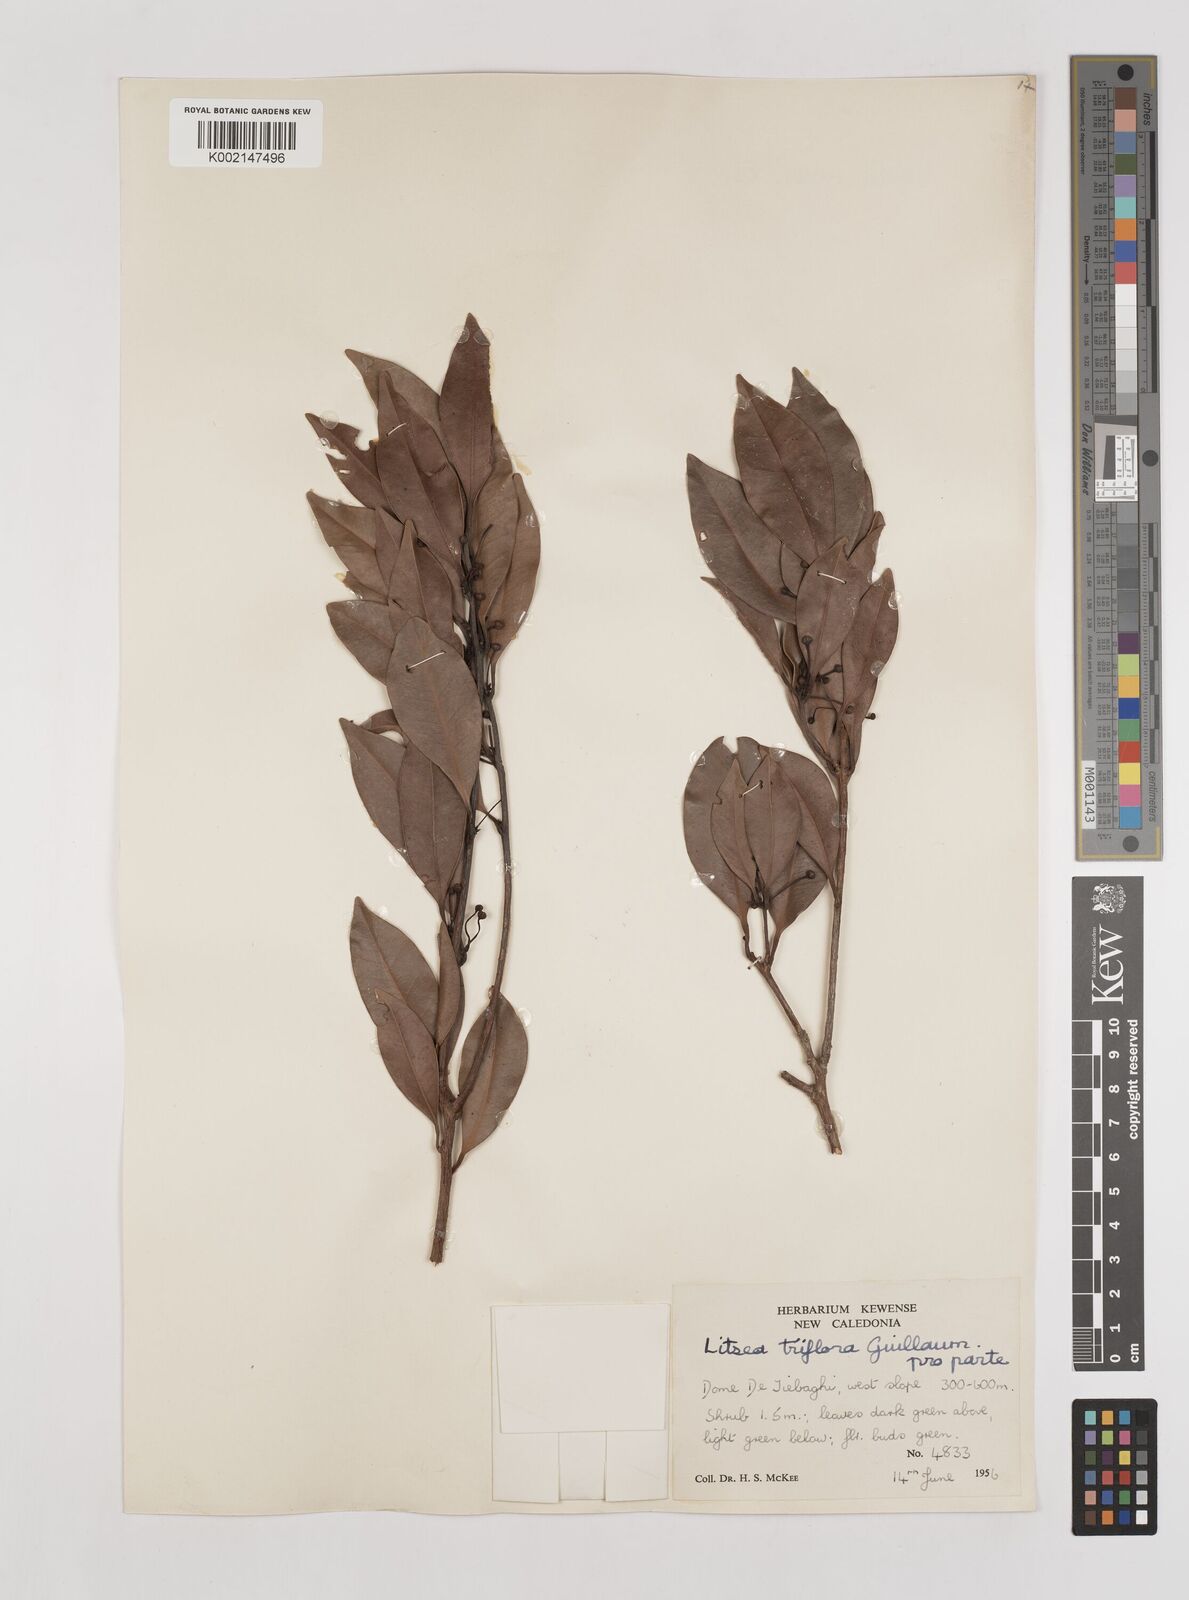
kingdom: Plantae
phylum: Tracheophyta
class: Magnoliopsida
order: Laurales
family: Lauraceae
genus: Litsea
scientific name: Litsea triflora
